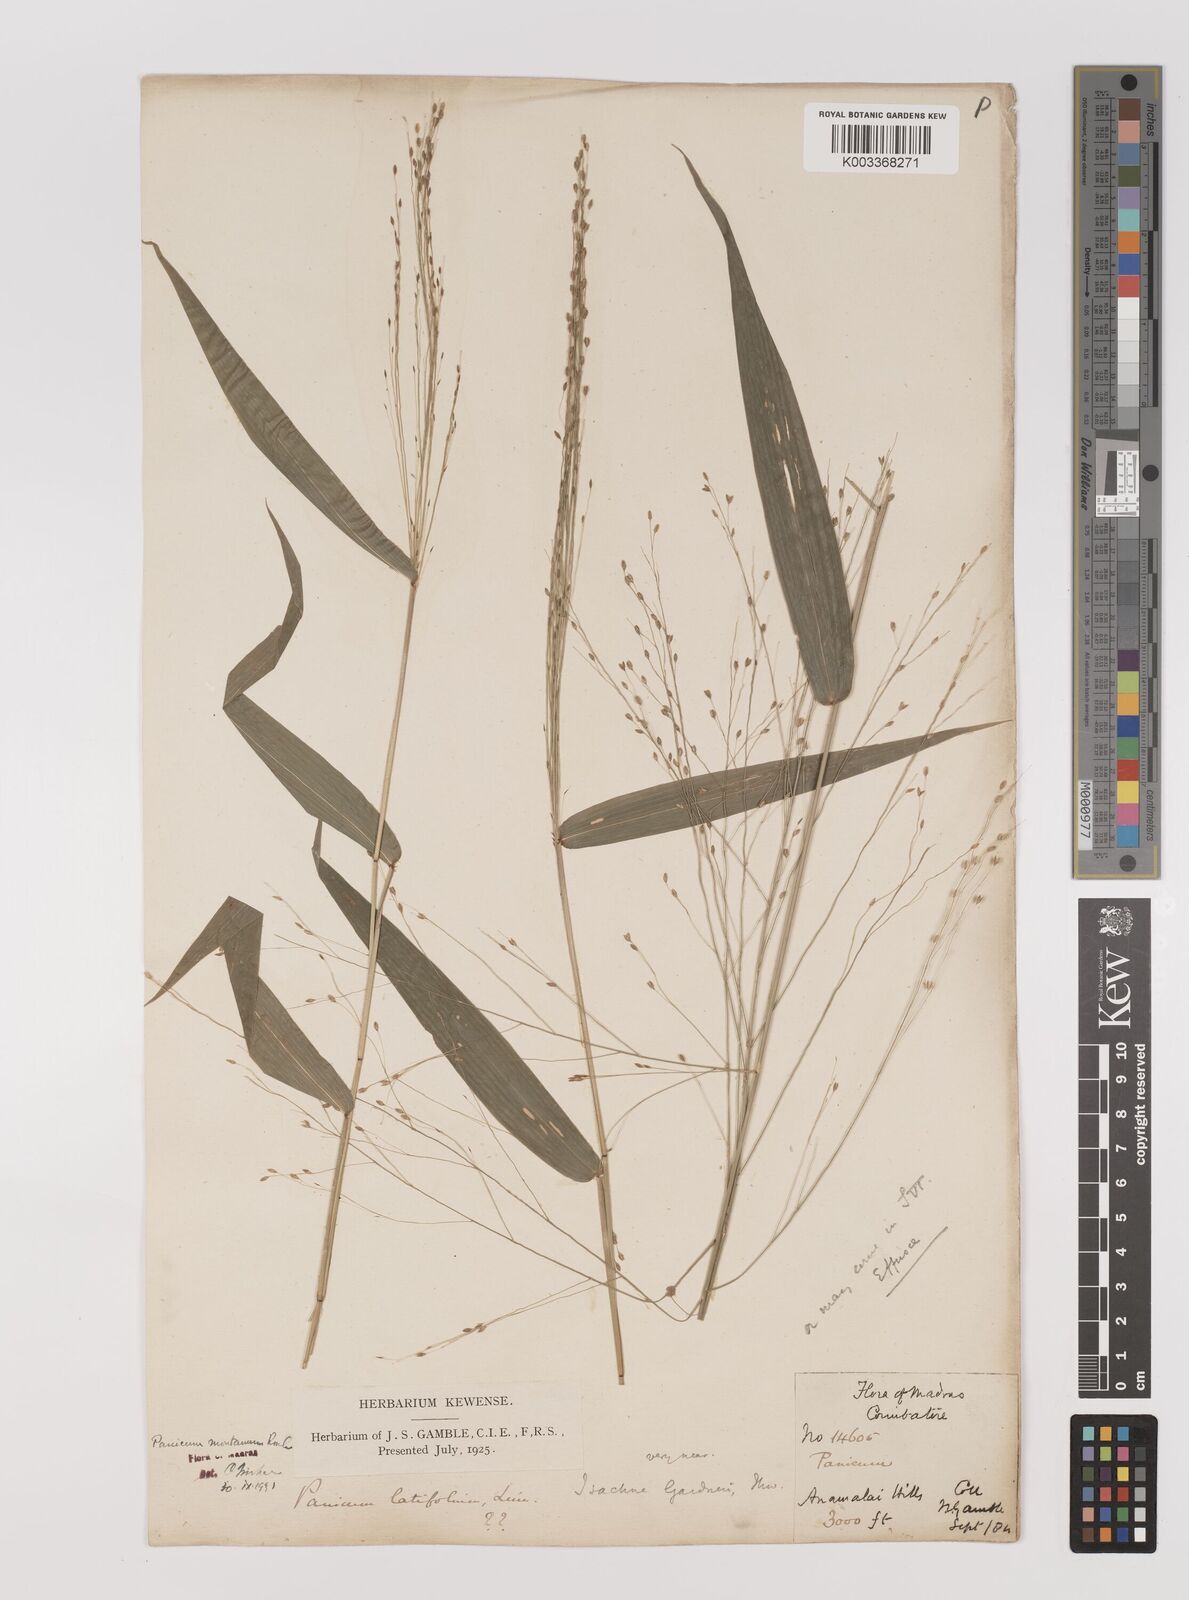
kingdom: Plantae
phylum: Tracheophyta
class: Liliopsida
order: Poales
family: Poaceae
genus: Panicum
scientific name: Panicum notatum
